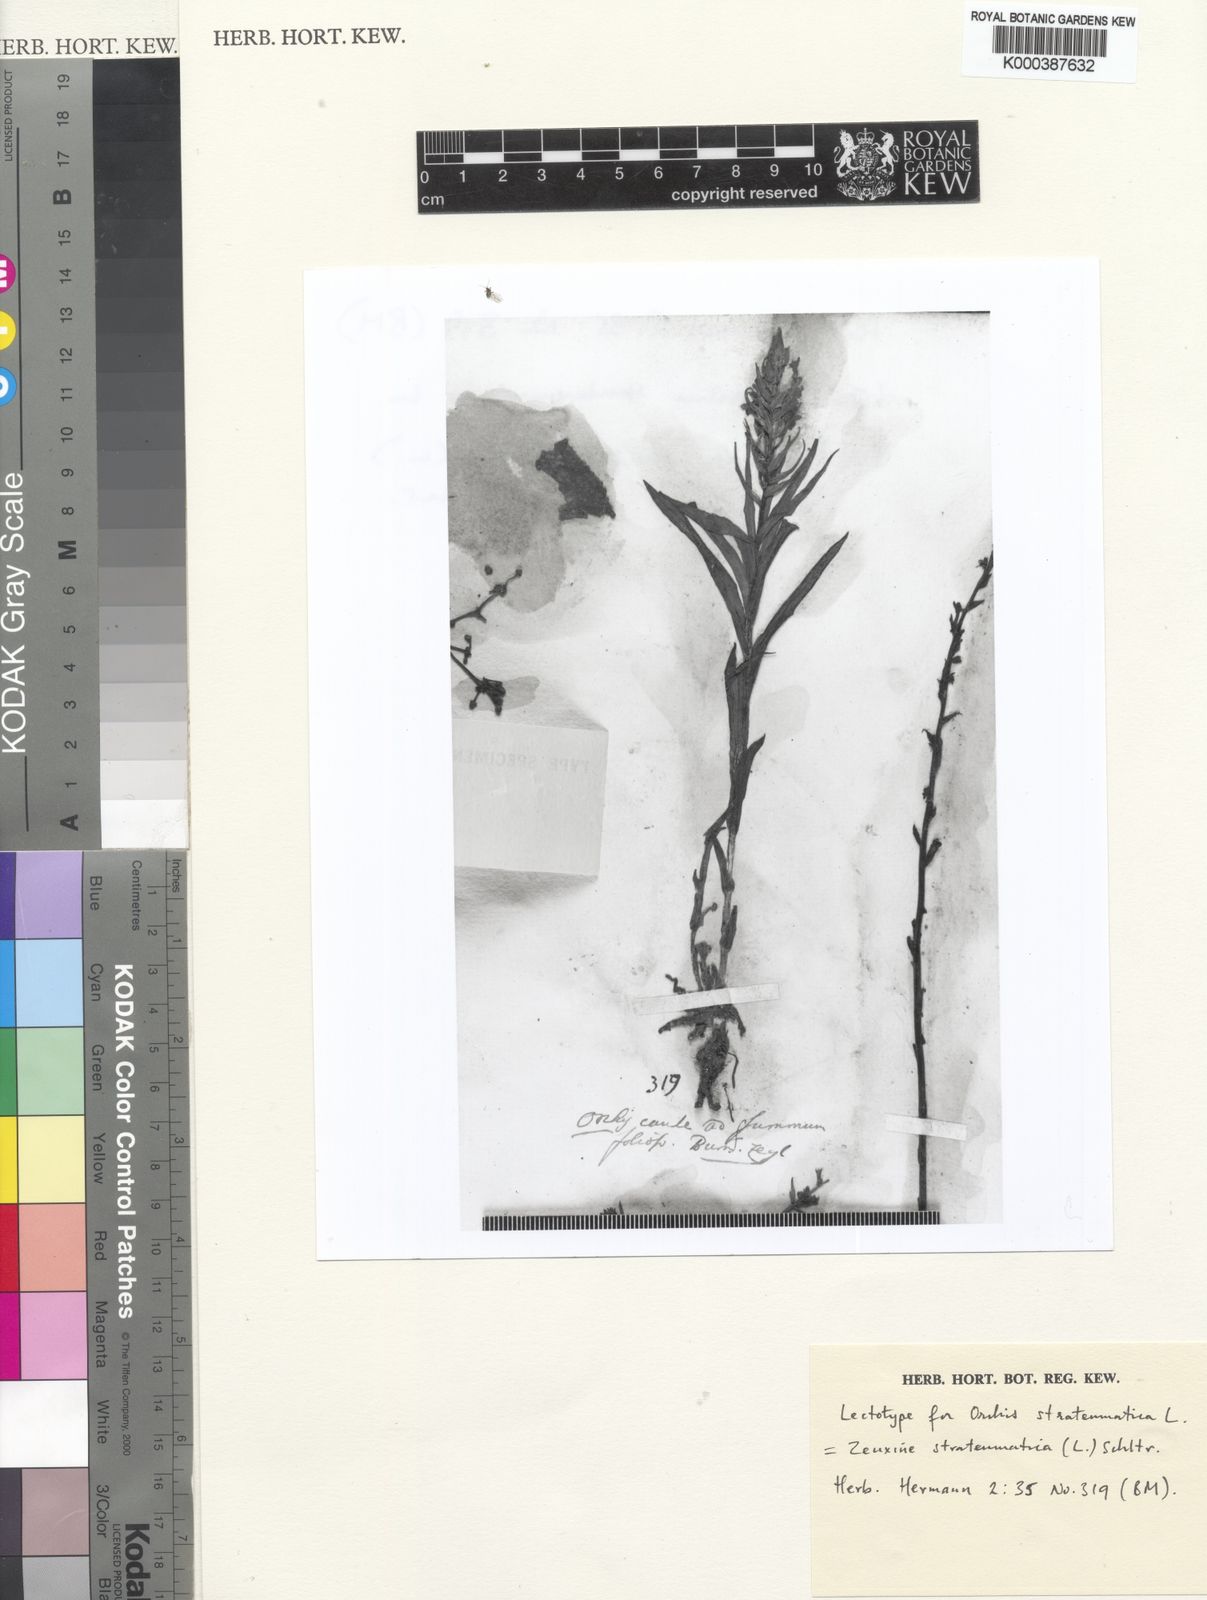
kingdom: Plantae
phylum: Tracheophyta
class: Liliopsida
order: Asparagales
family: Orchidaceae
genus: Zeuxine
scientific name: Zeuxine strateumatica
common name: Soldier's orchid
